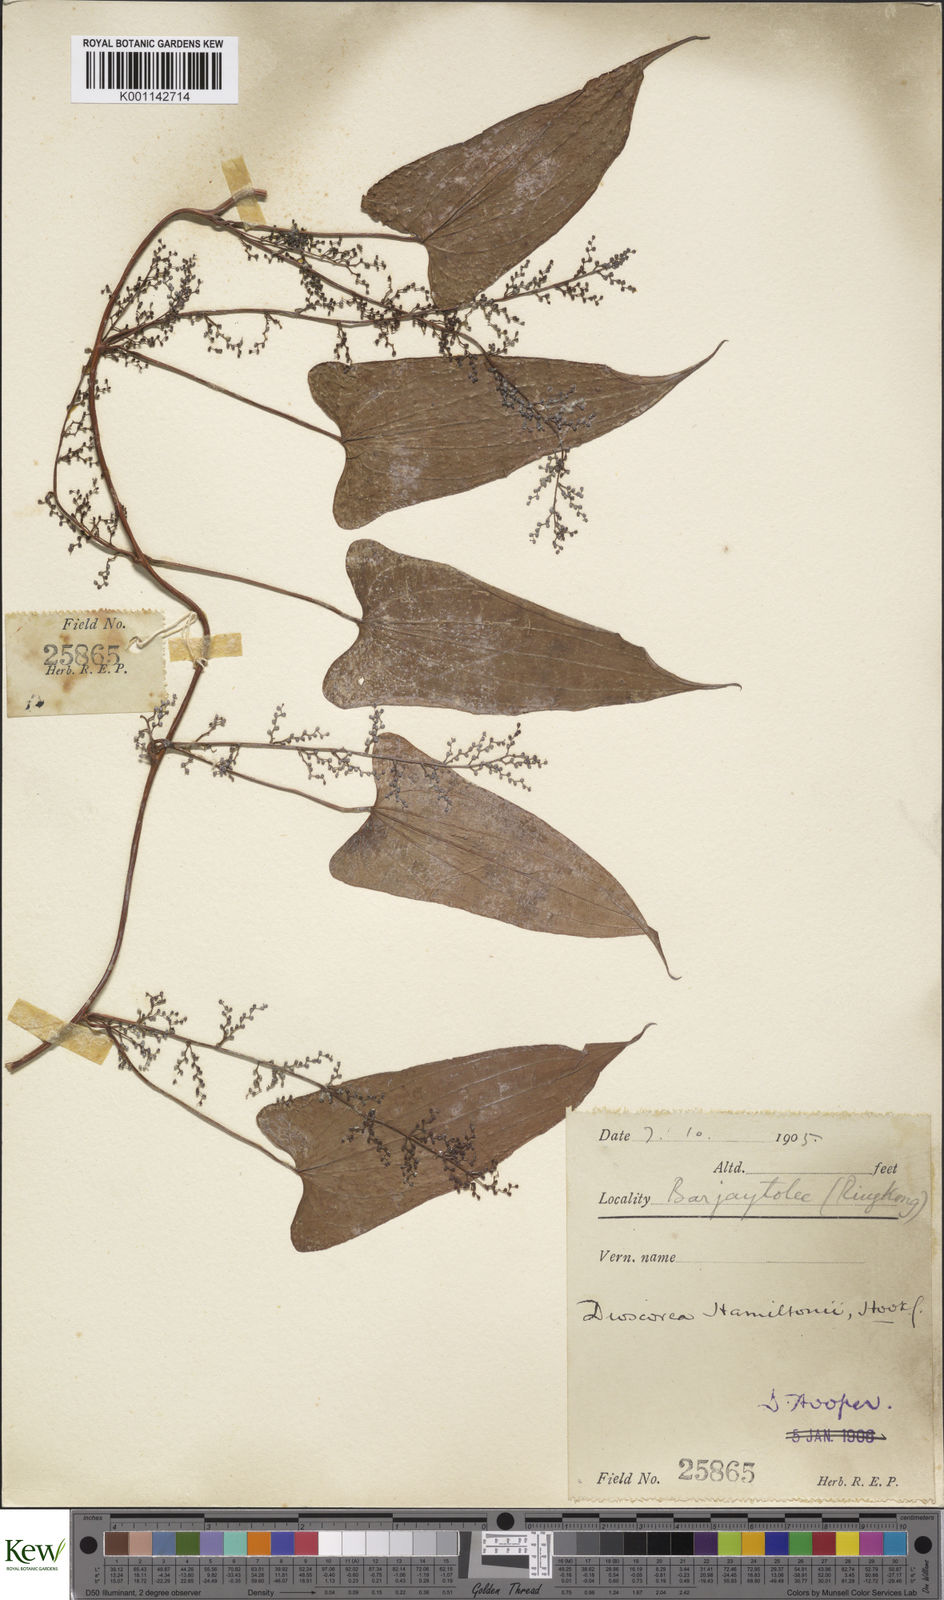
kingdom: Plantae
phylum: Tracheophyta
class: Liliopsida
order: Dioscoreales
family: Dioscoreaceae
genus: Dioscorea
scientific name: Dioscorea hamiltonii
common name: Mountain yam
